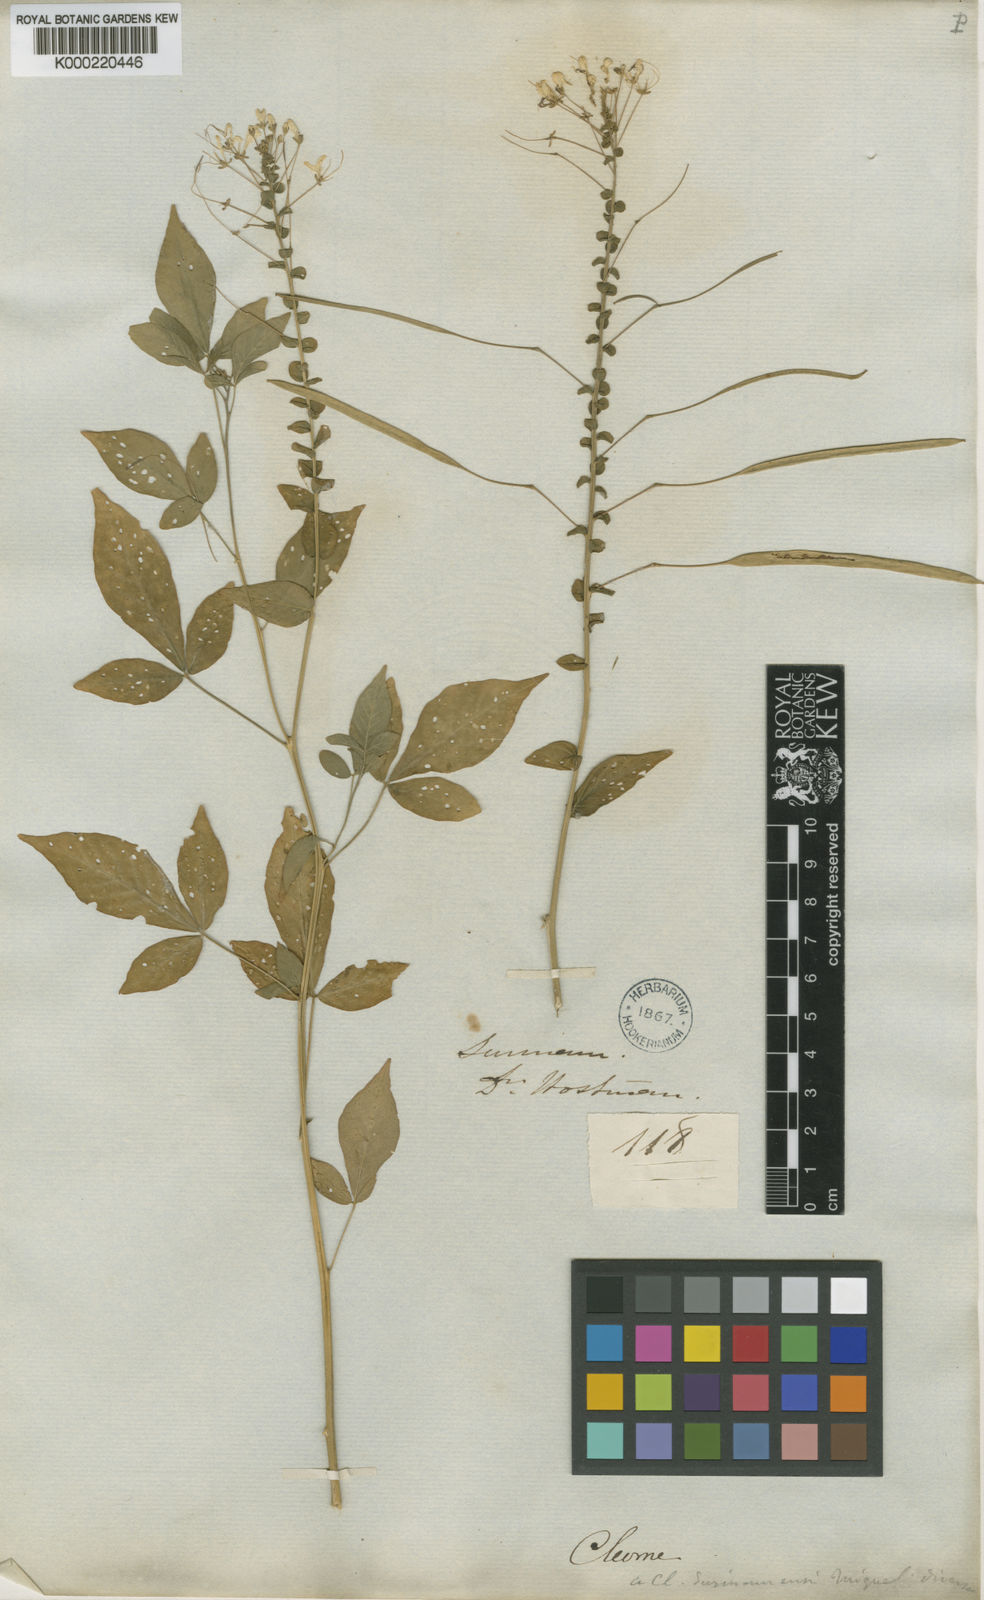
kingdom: Plantae
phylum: Tracheophyta
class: Magnoliopsida
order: Brassicales
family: Cleomaceae
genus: Tarenaya
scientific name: Tarenaya latifolia
